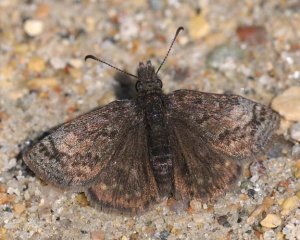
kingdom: Animalia
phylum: Arthropoda
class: Insecta
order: Lepidoptera
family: Hesperiidae
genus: Erynnis
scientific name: Erynnis icelus
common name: Dreamy Duskywing
